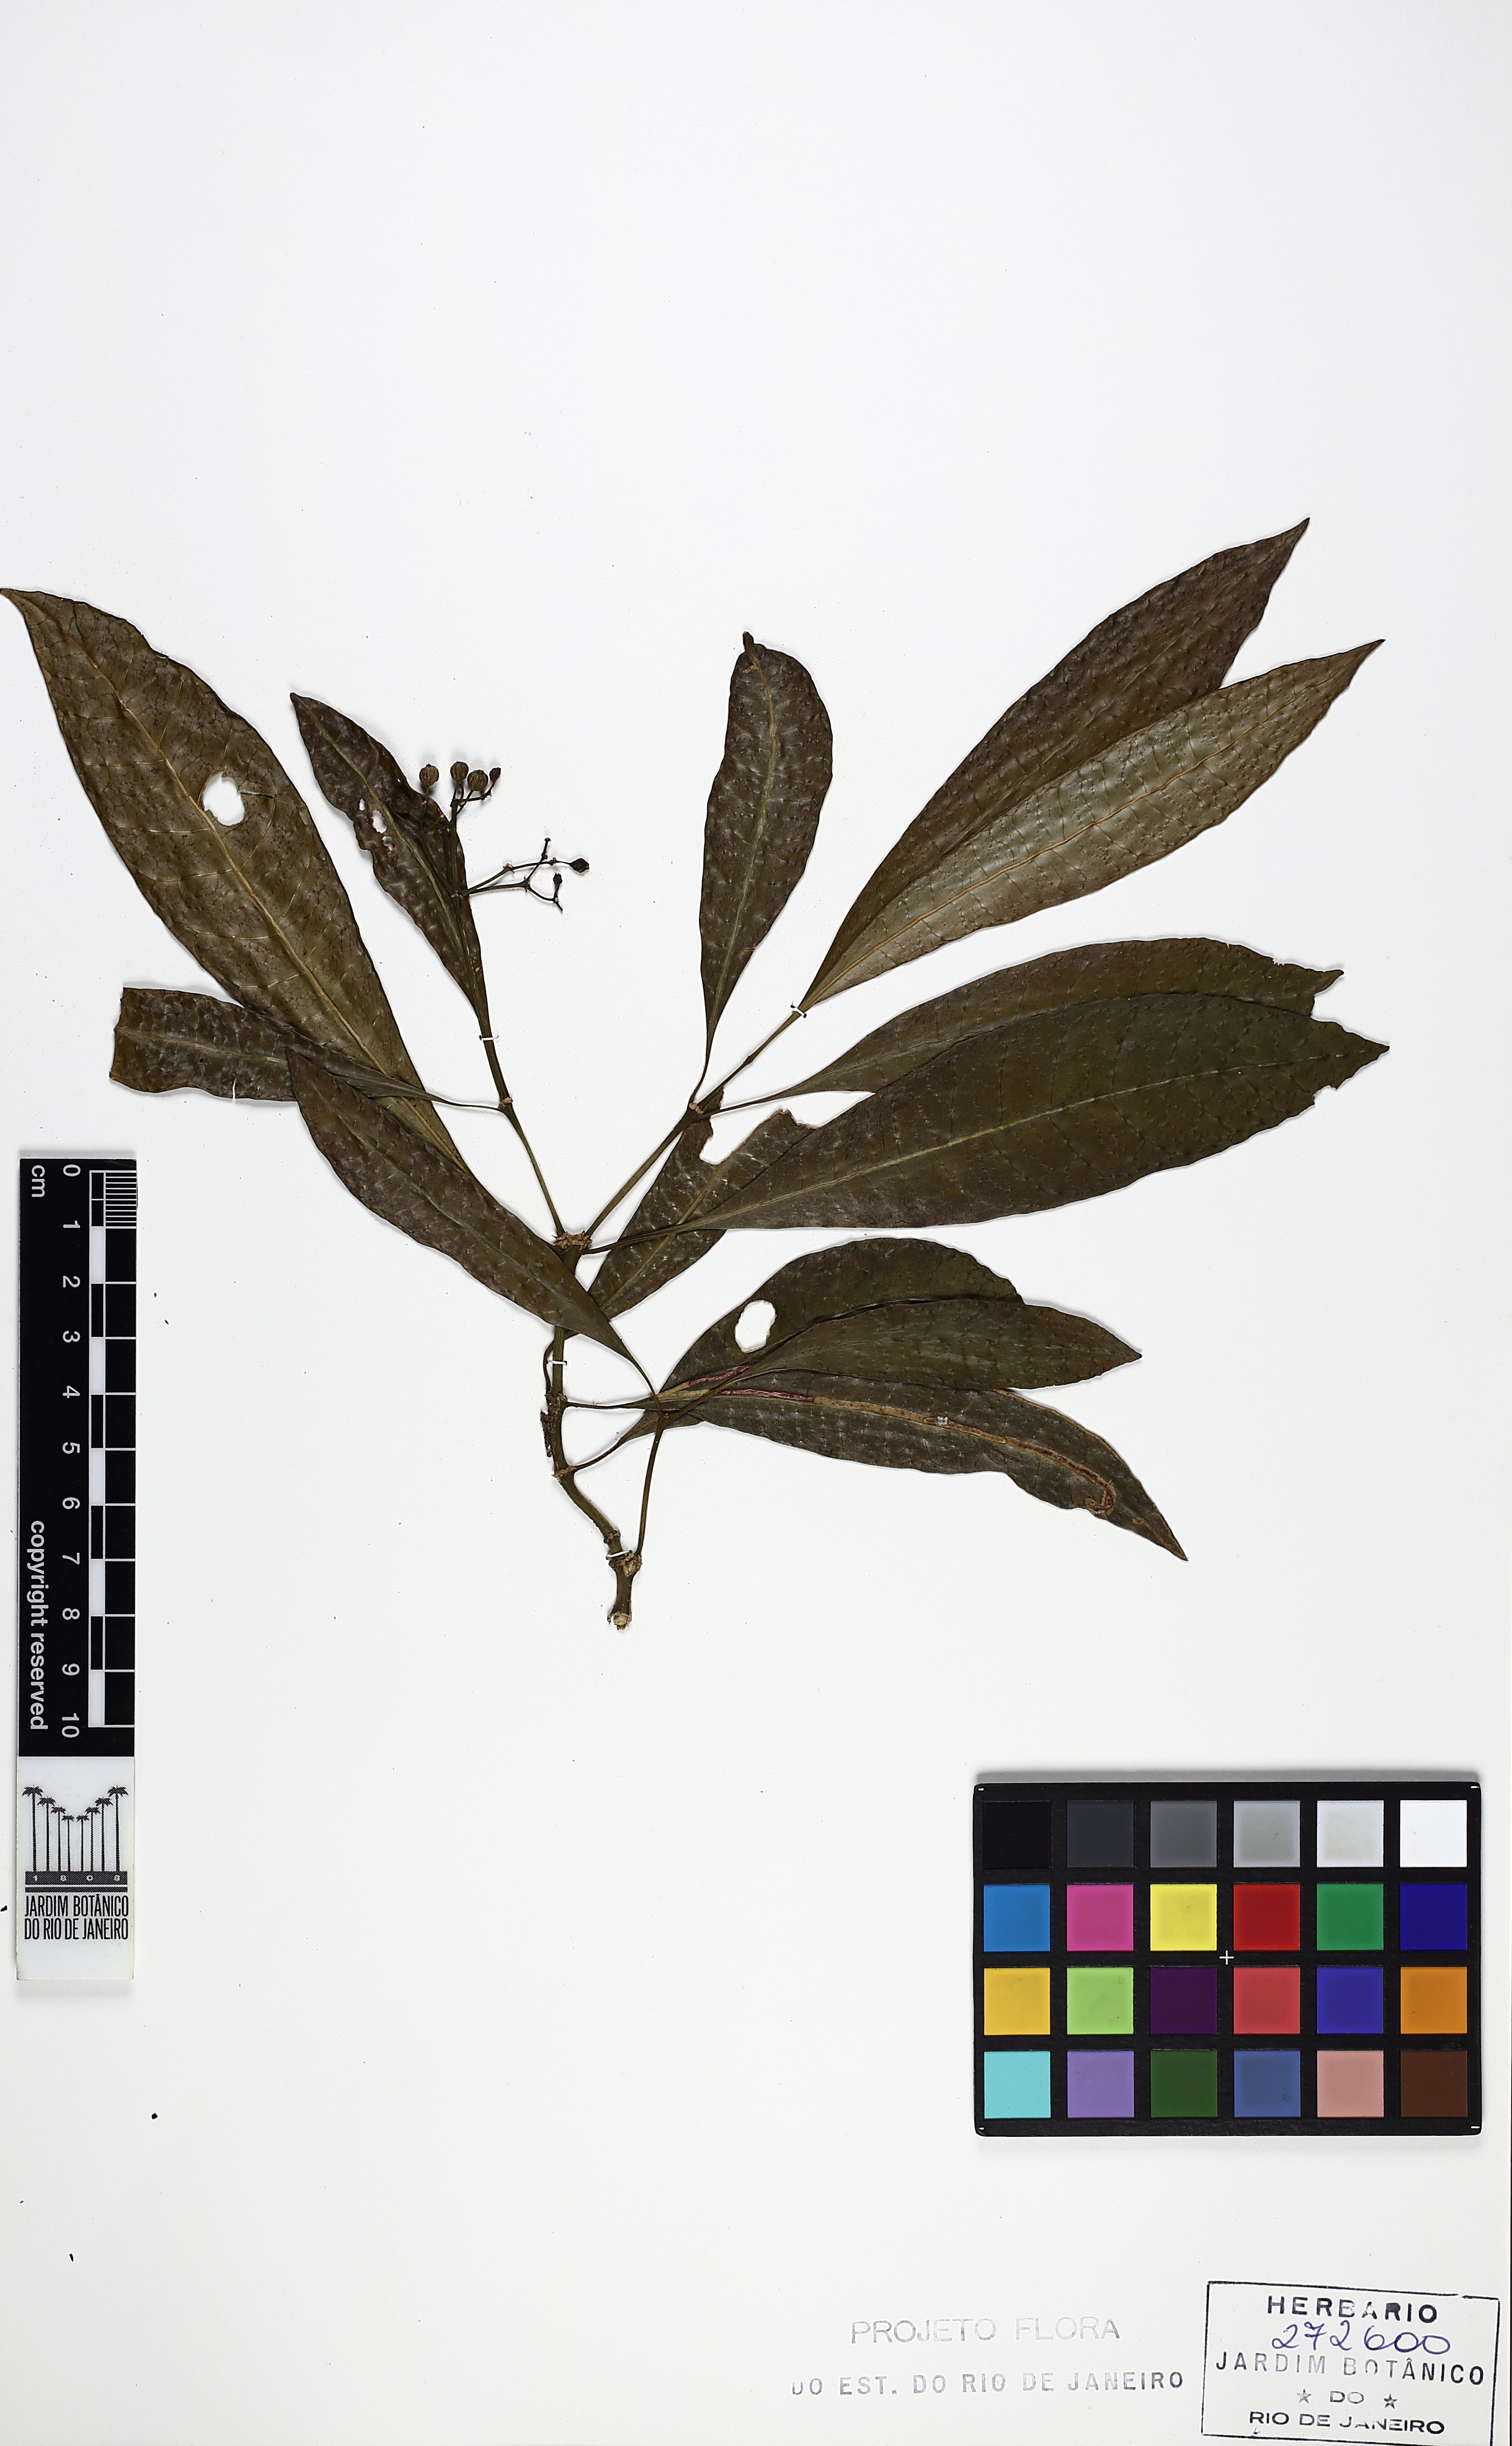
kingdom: Plantae
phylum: Tracheophyta
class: Magnoliopsida
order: Gentianales
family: Rubiaceae
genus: Eumachia
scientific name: Eumachia cymuligera
